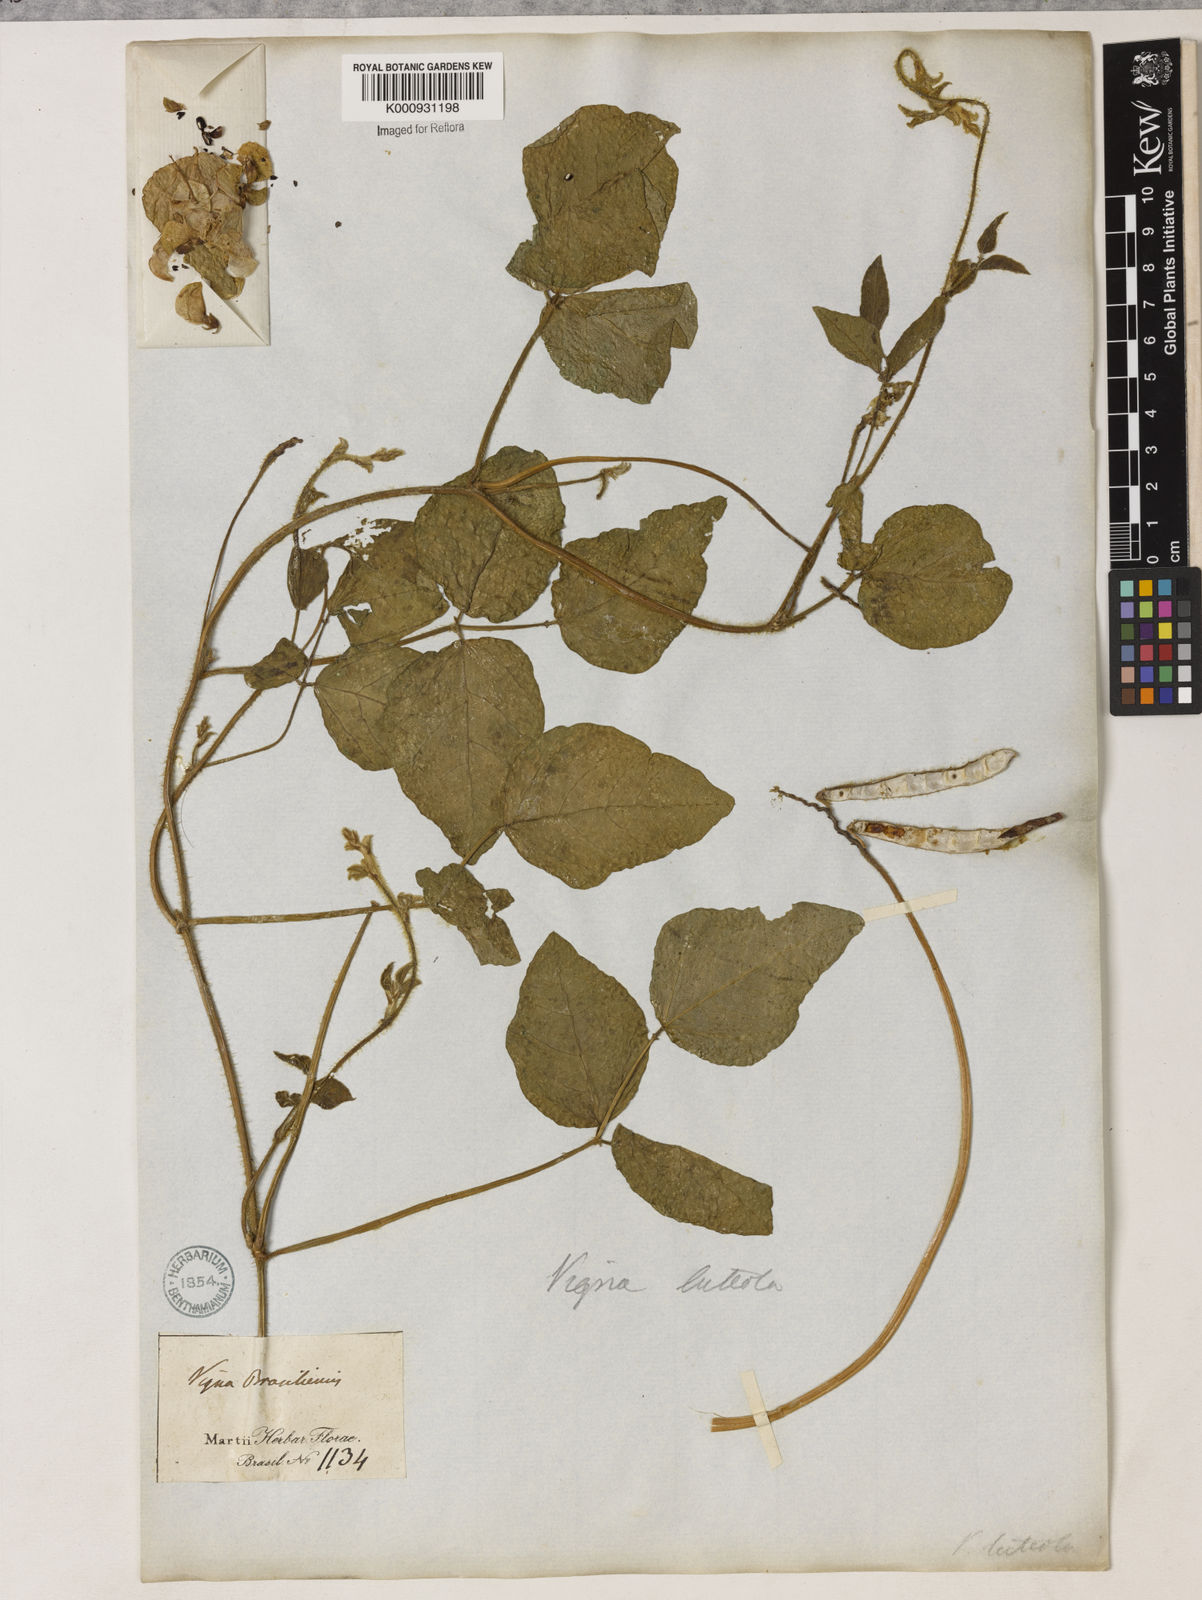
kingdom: Plantae
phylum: Tracheophyta
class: Magnoliopsida
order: Fabales
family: Fabaceae
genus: Vigna
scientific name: Vigna luteola
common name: Hairypod cowpea
